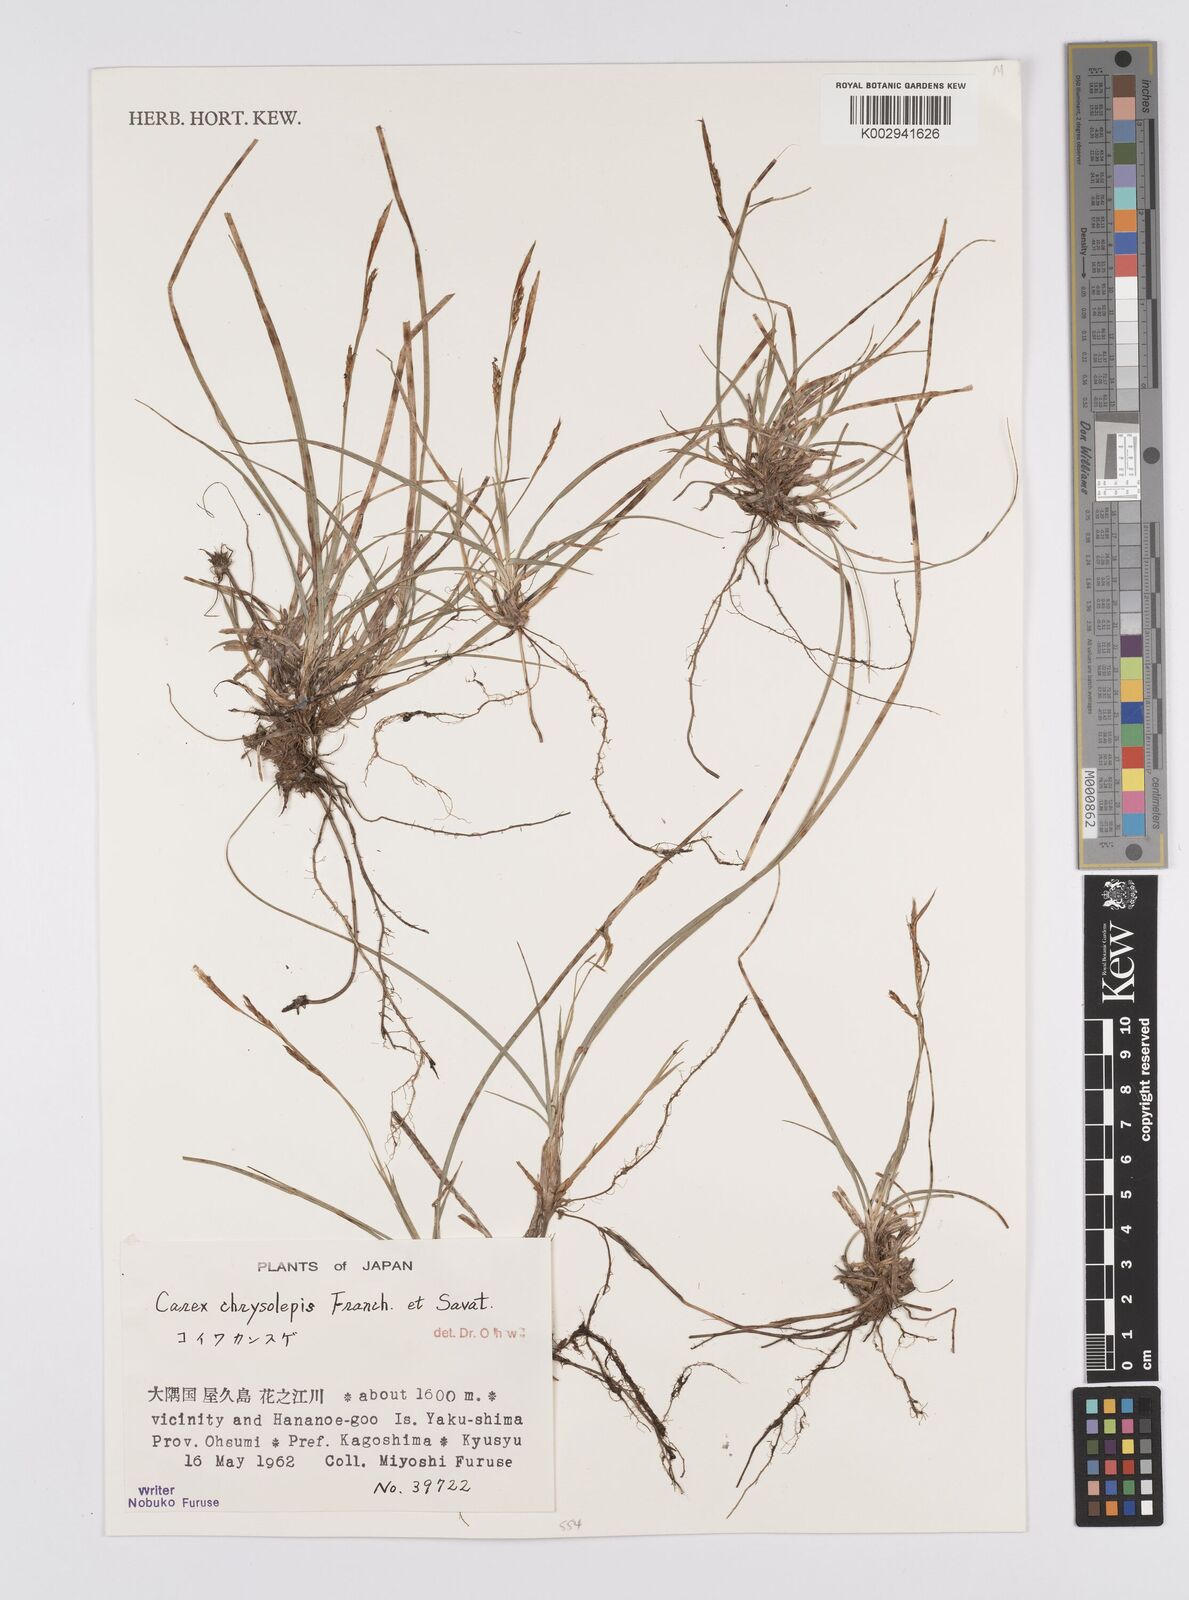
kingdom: Plantae
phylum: Tracheophyta
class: Liliopsida
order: Poales
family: Cyperaceae
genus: Carex
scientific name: Carex chrysolepis
